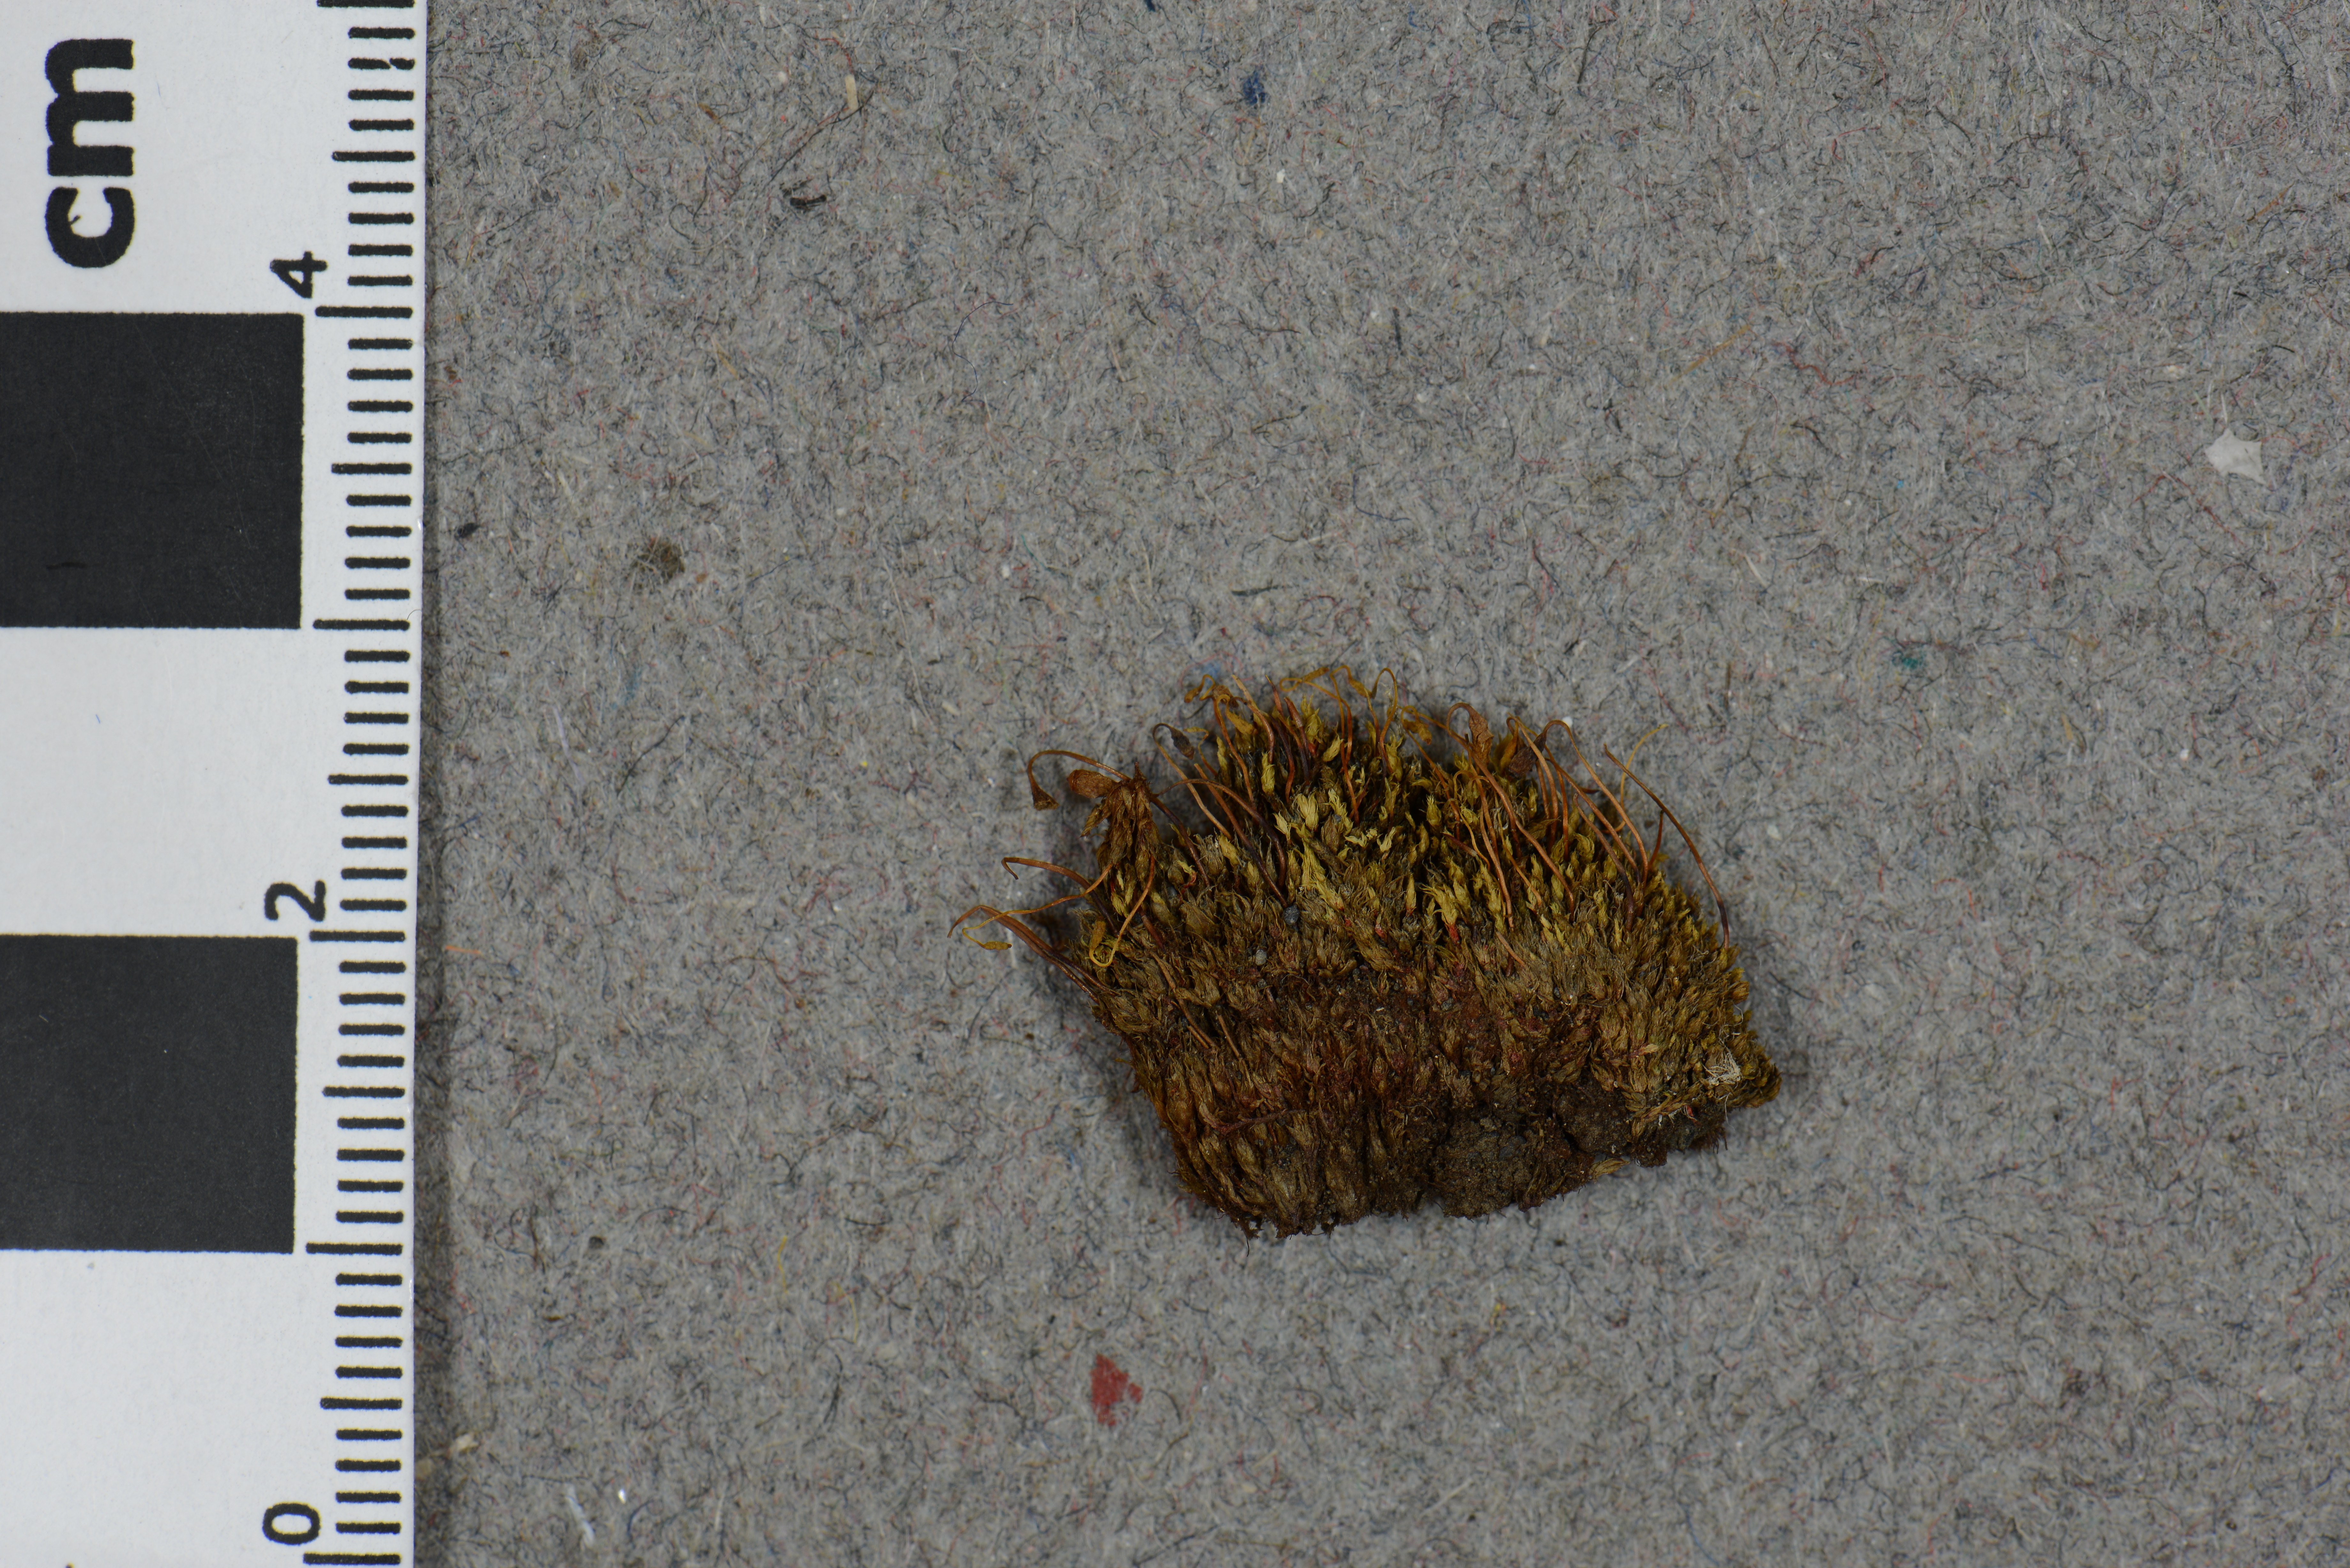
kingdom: Plantae
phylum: Bryophyta
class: Bryopsida
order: Bryales
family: Bryaceae
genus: Ptychostomum
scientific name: Ptychostomum salinum
